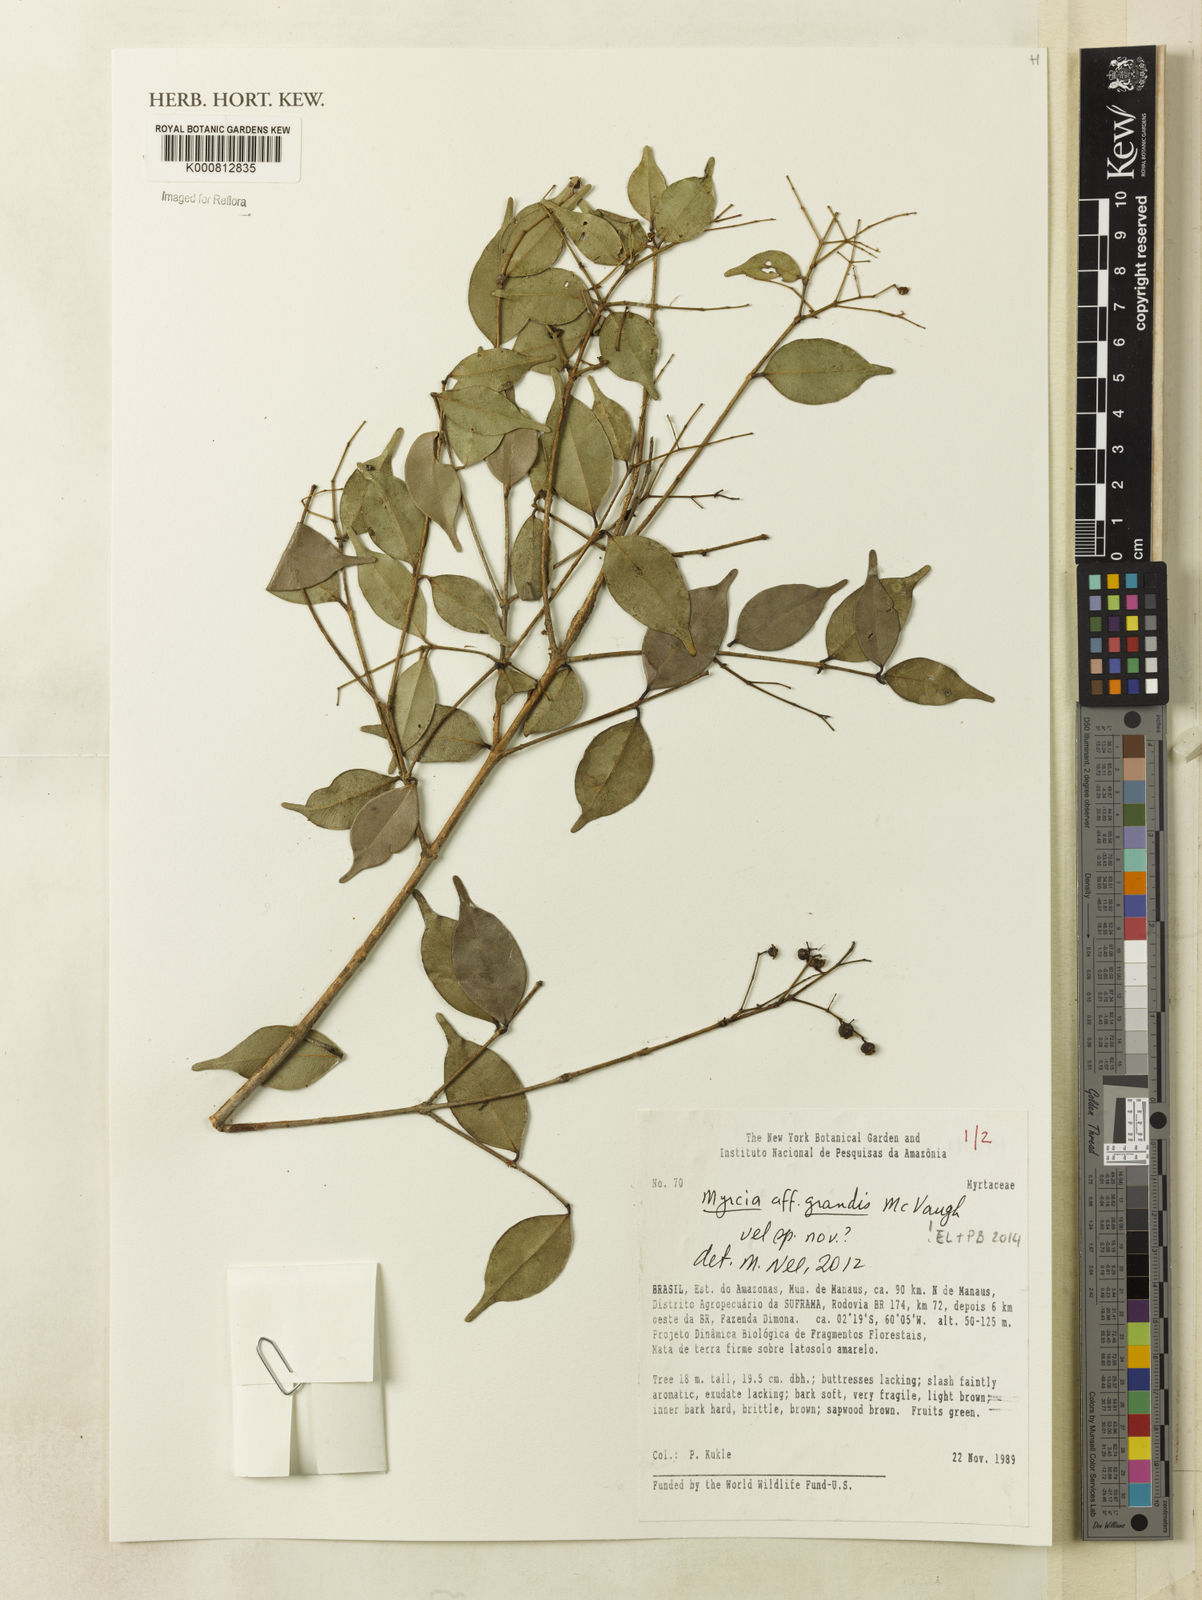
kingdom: Plantae
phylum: Tracheophyta
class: Magnoliopsida
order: Myrtales
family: Myrtaceae
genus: Myrcia
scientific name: Myrcia grandis
